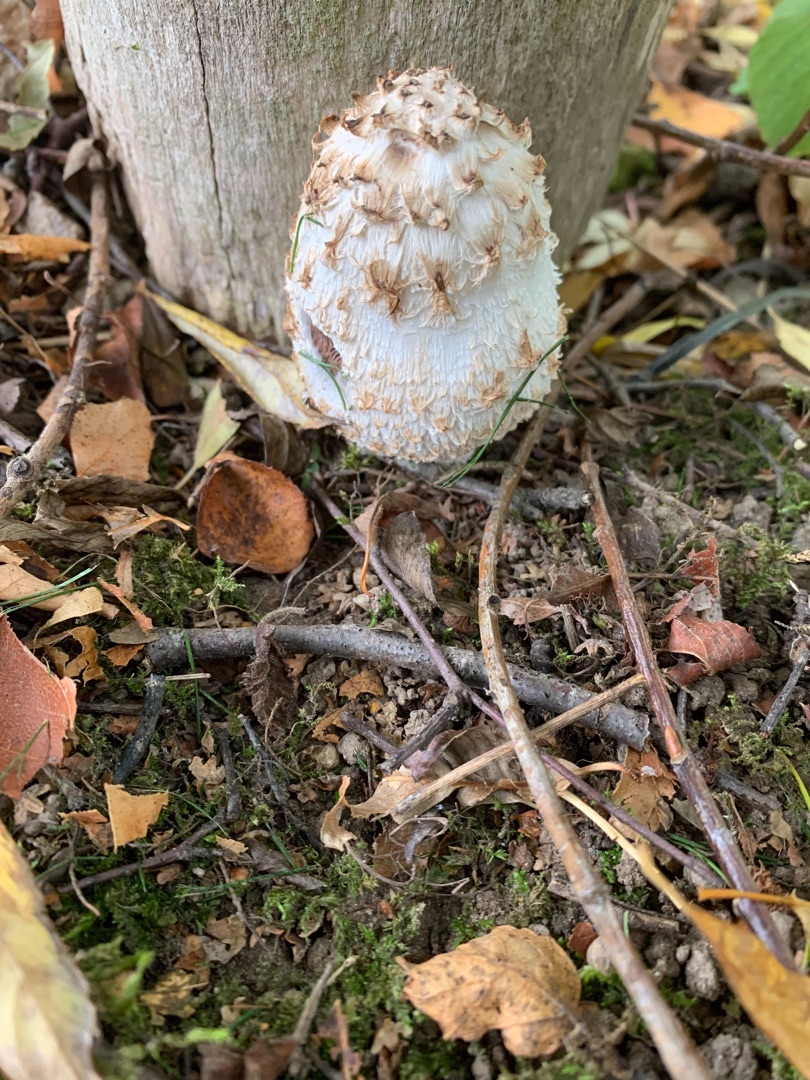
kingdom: Fungi
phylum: Basidiomycota
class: Agaricomycetes
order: Agaricales
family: Agaricaceae
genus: Coprinus
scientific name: Coprinus comatus
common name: Stor parykhat
